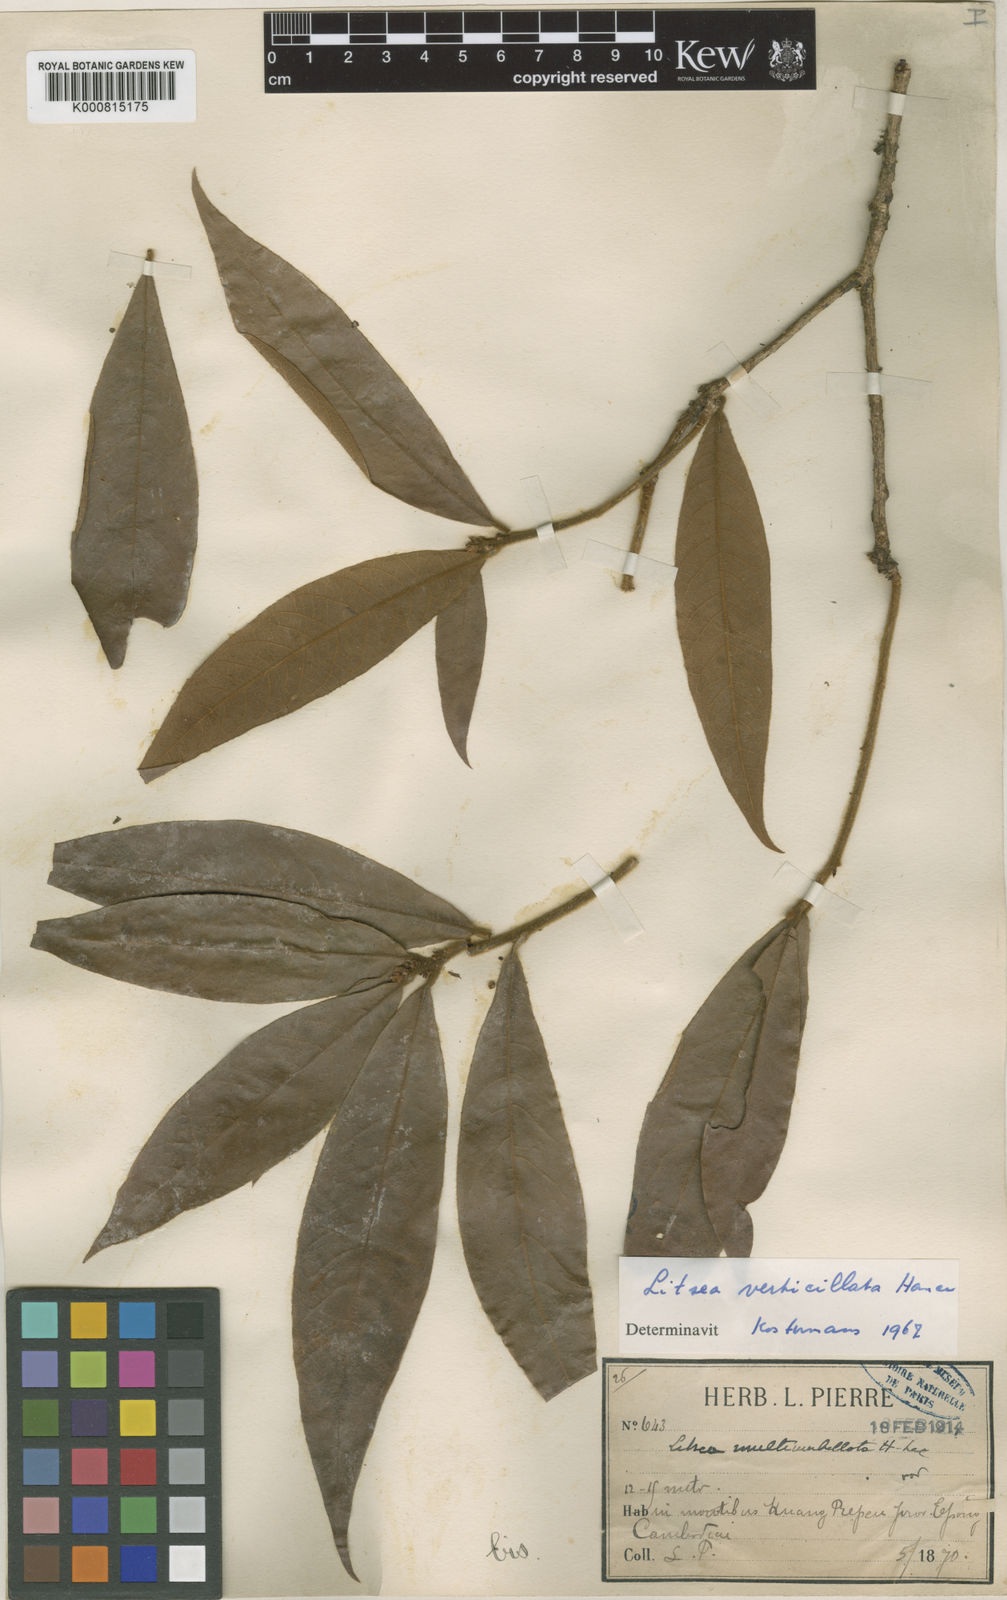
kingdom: Plantae
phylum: Tracheophyta
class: Magnoliopsida
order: Laurales
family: Lauraceae
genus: Litsea
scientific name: Litsea verticillata
